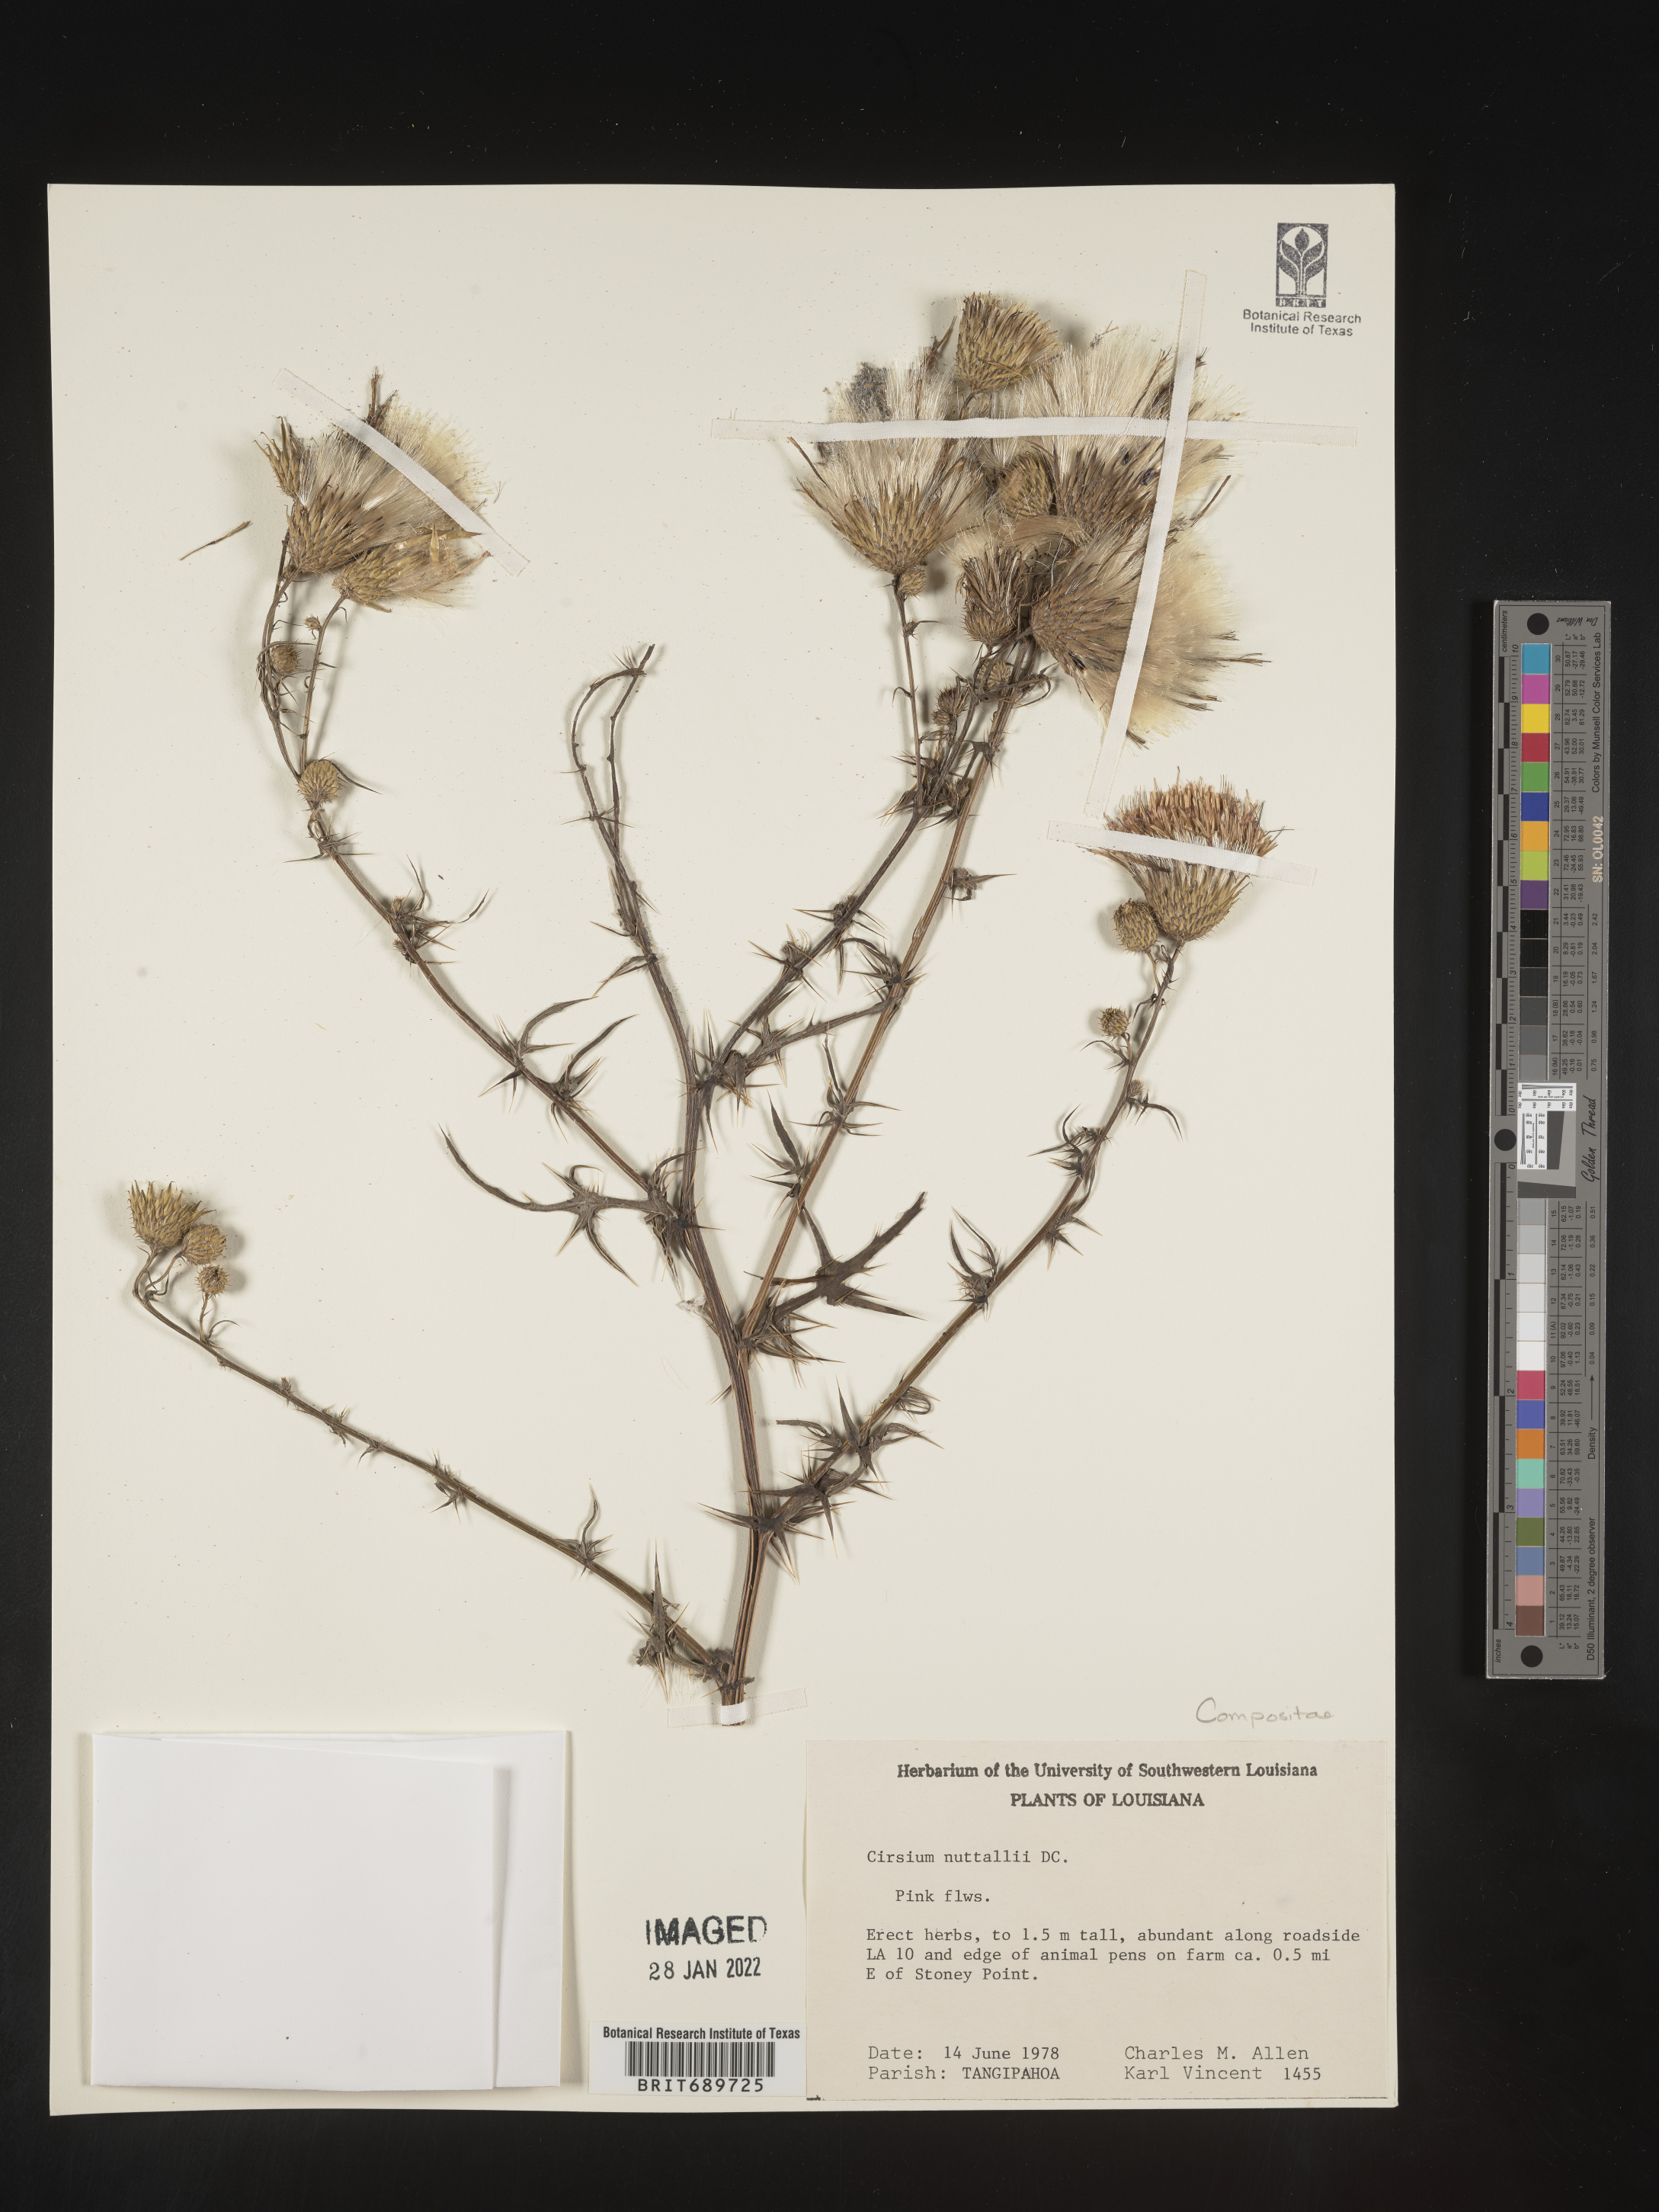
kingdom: Plantae
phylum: Tracheophyta
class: Magnoliopsida
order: Asterales
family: Asteraceae
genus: Cirsium
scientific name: Cirsium
